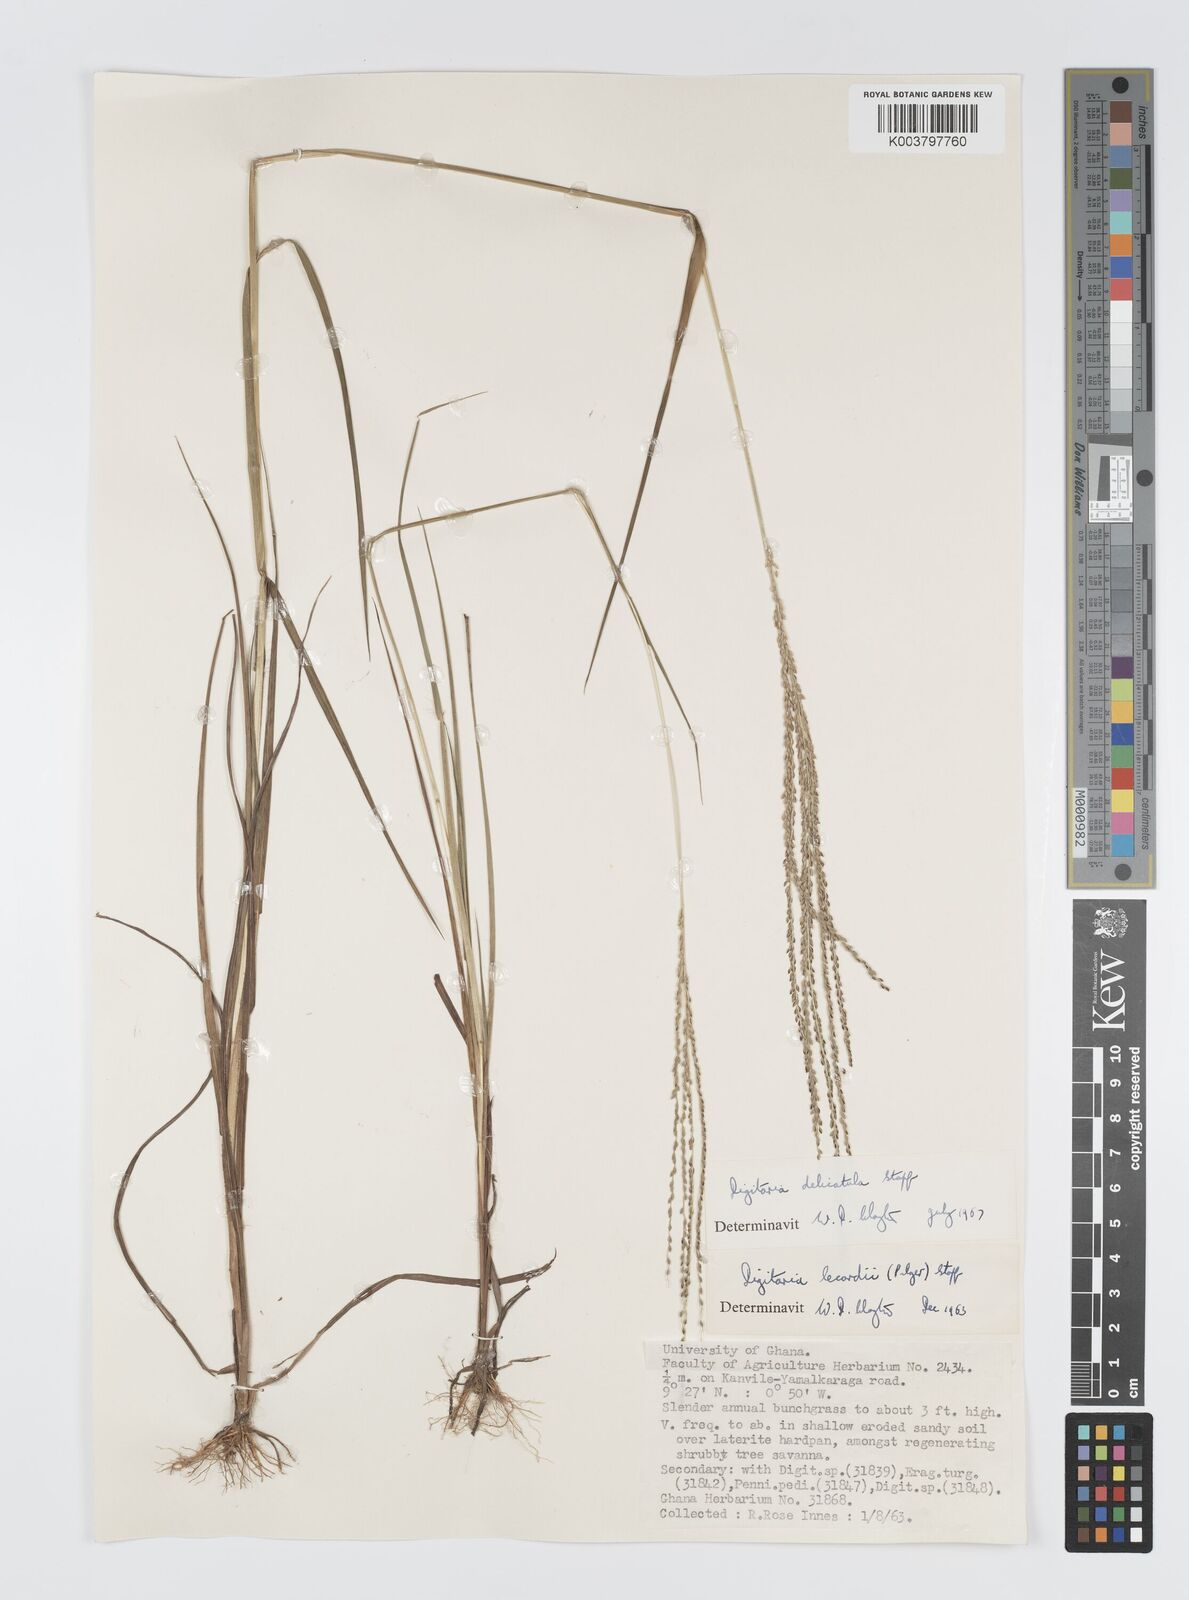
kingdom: Plantae
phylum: Tracheophyta
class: Liliopsida
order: Poales
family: Poaceae
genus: Digitaria
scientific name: Digitaria delicatula
